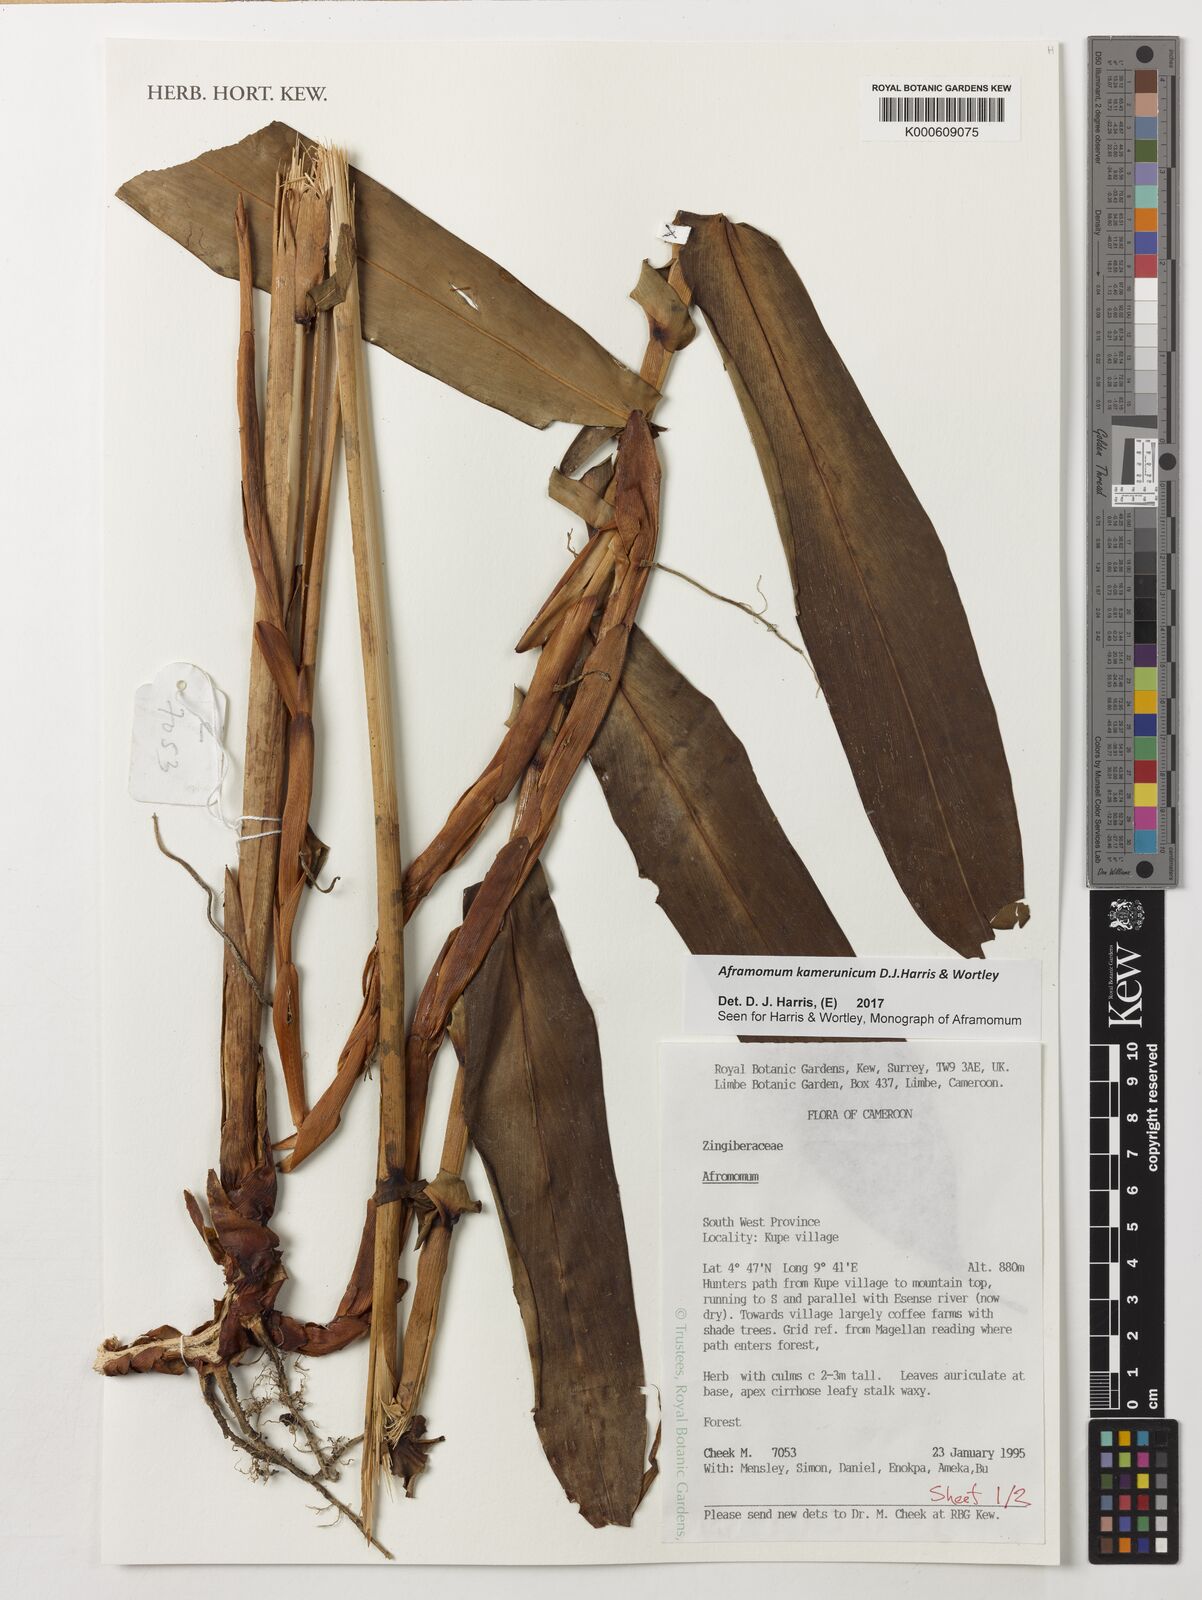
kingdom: Plantae
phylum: Tracheophyta
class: Liliopsida
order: Zingiberales
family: Zingiberaceae
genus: Aframomum
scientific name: Aframomum kamerunicum
